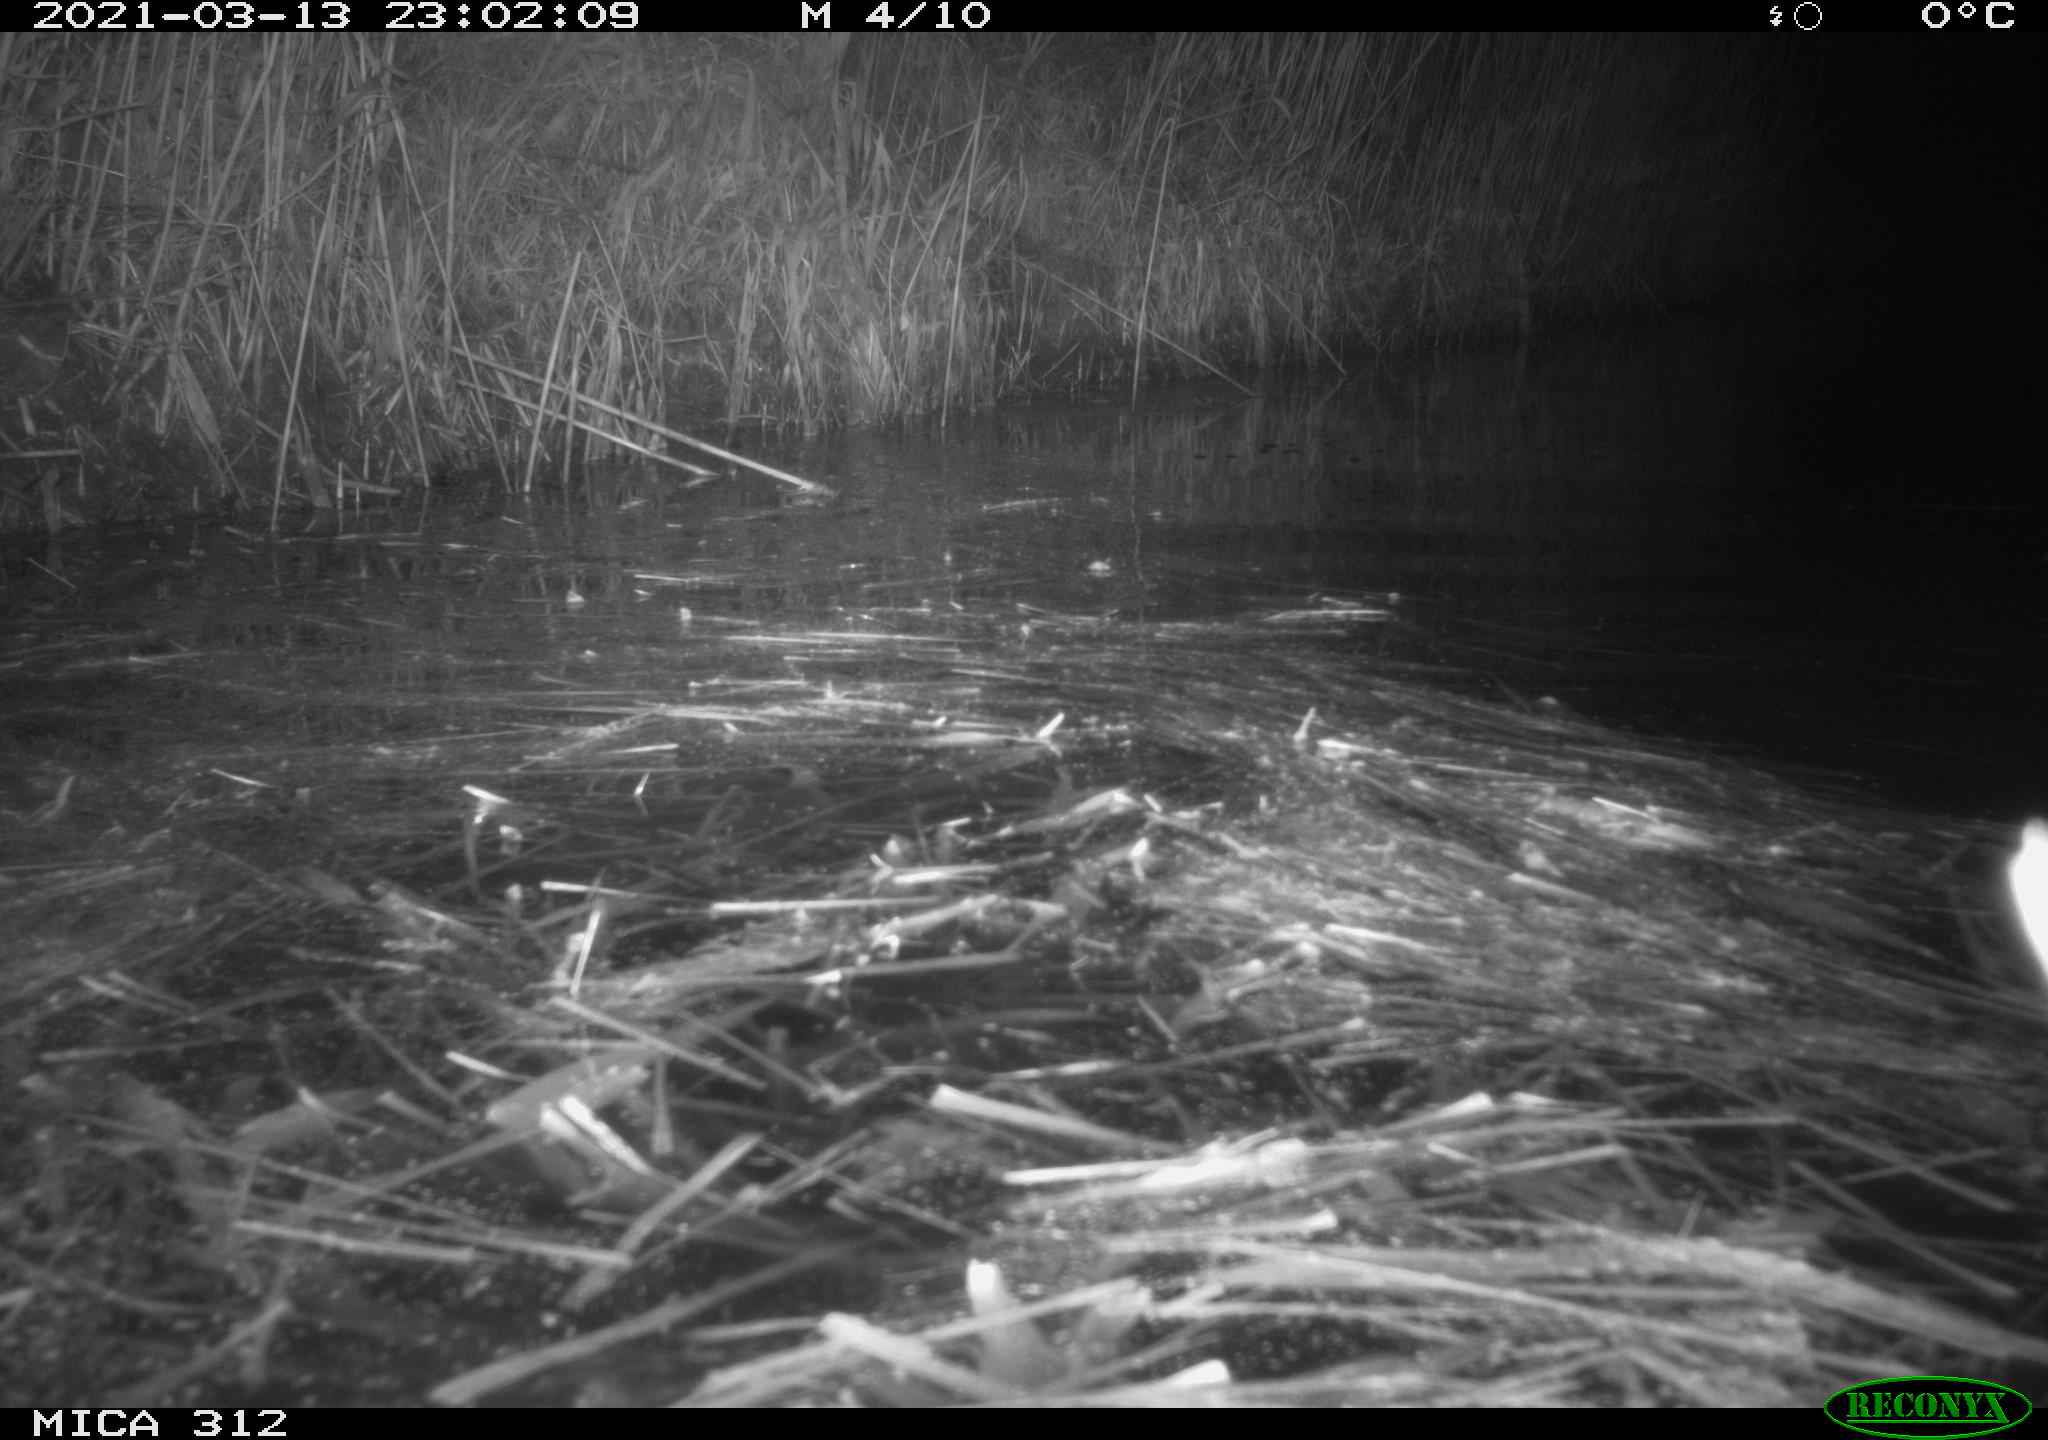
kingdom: Animalia
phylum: Chordata
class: Mammalia
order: Rodentia
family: Muridae
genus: Rattus
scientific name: Rattus norvegicus
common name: Brown rat
